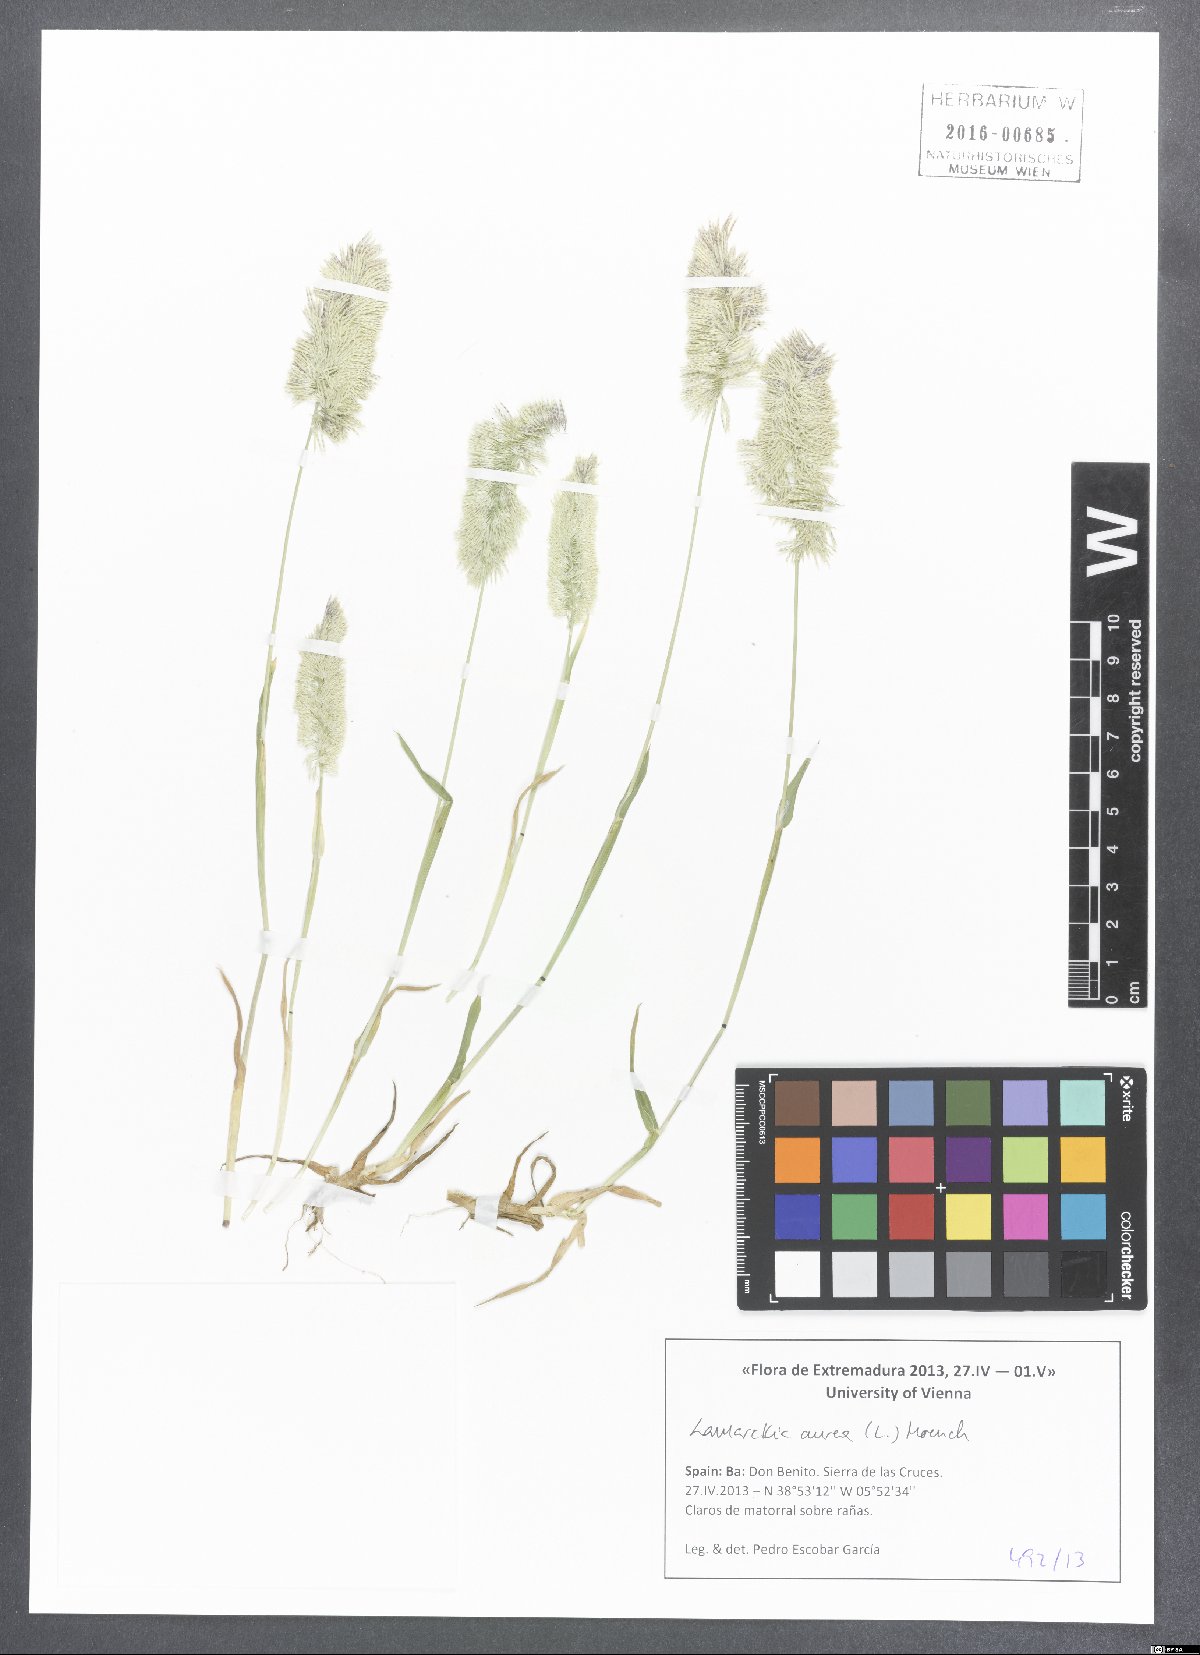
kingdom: Plantae
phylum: Tracheophyta
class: Liliopsida
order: Poales
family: Poaceae
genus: Lamarckia
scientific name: Lamarckia aurea
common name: Golden dog's-tail
